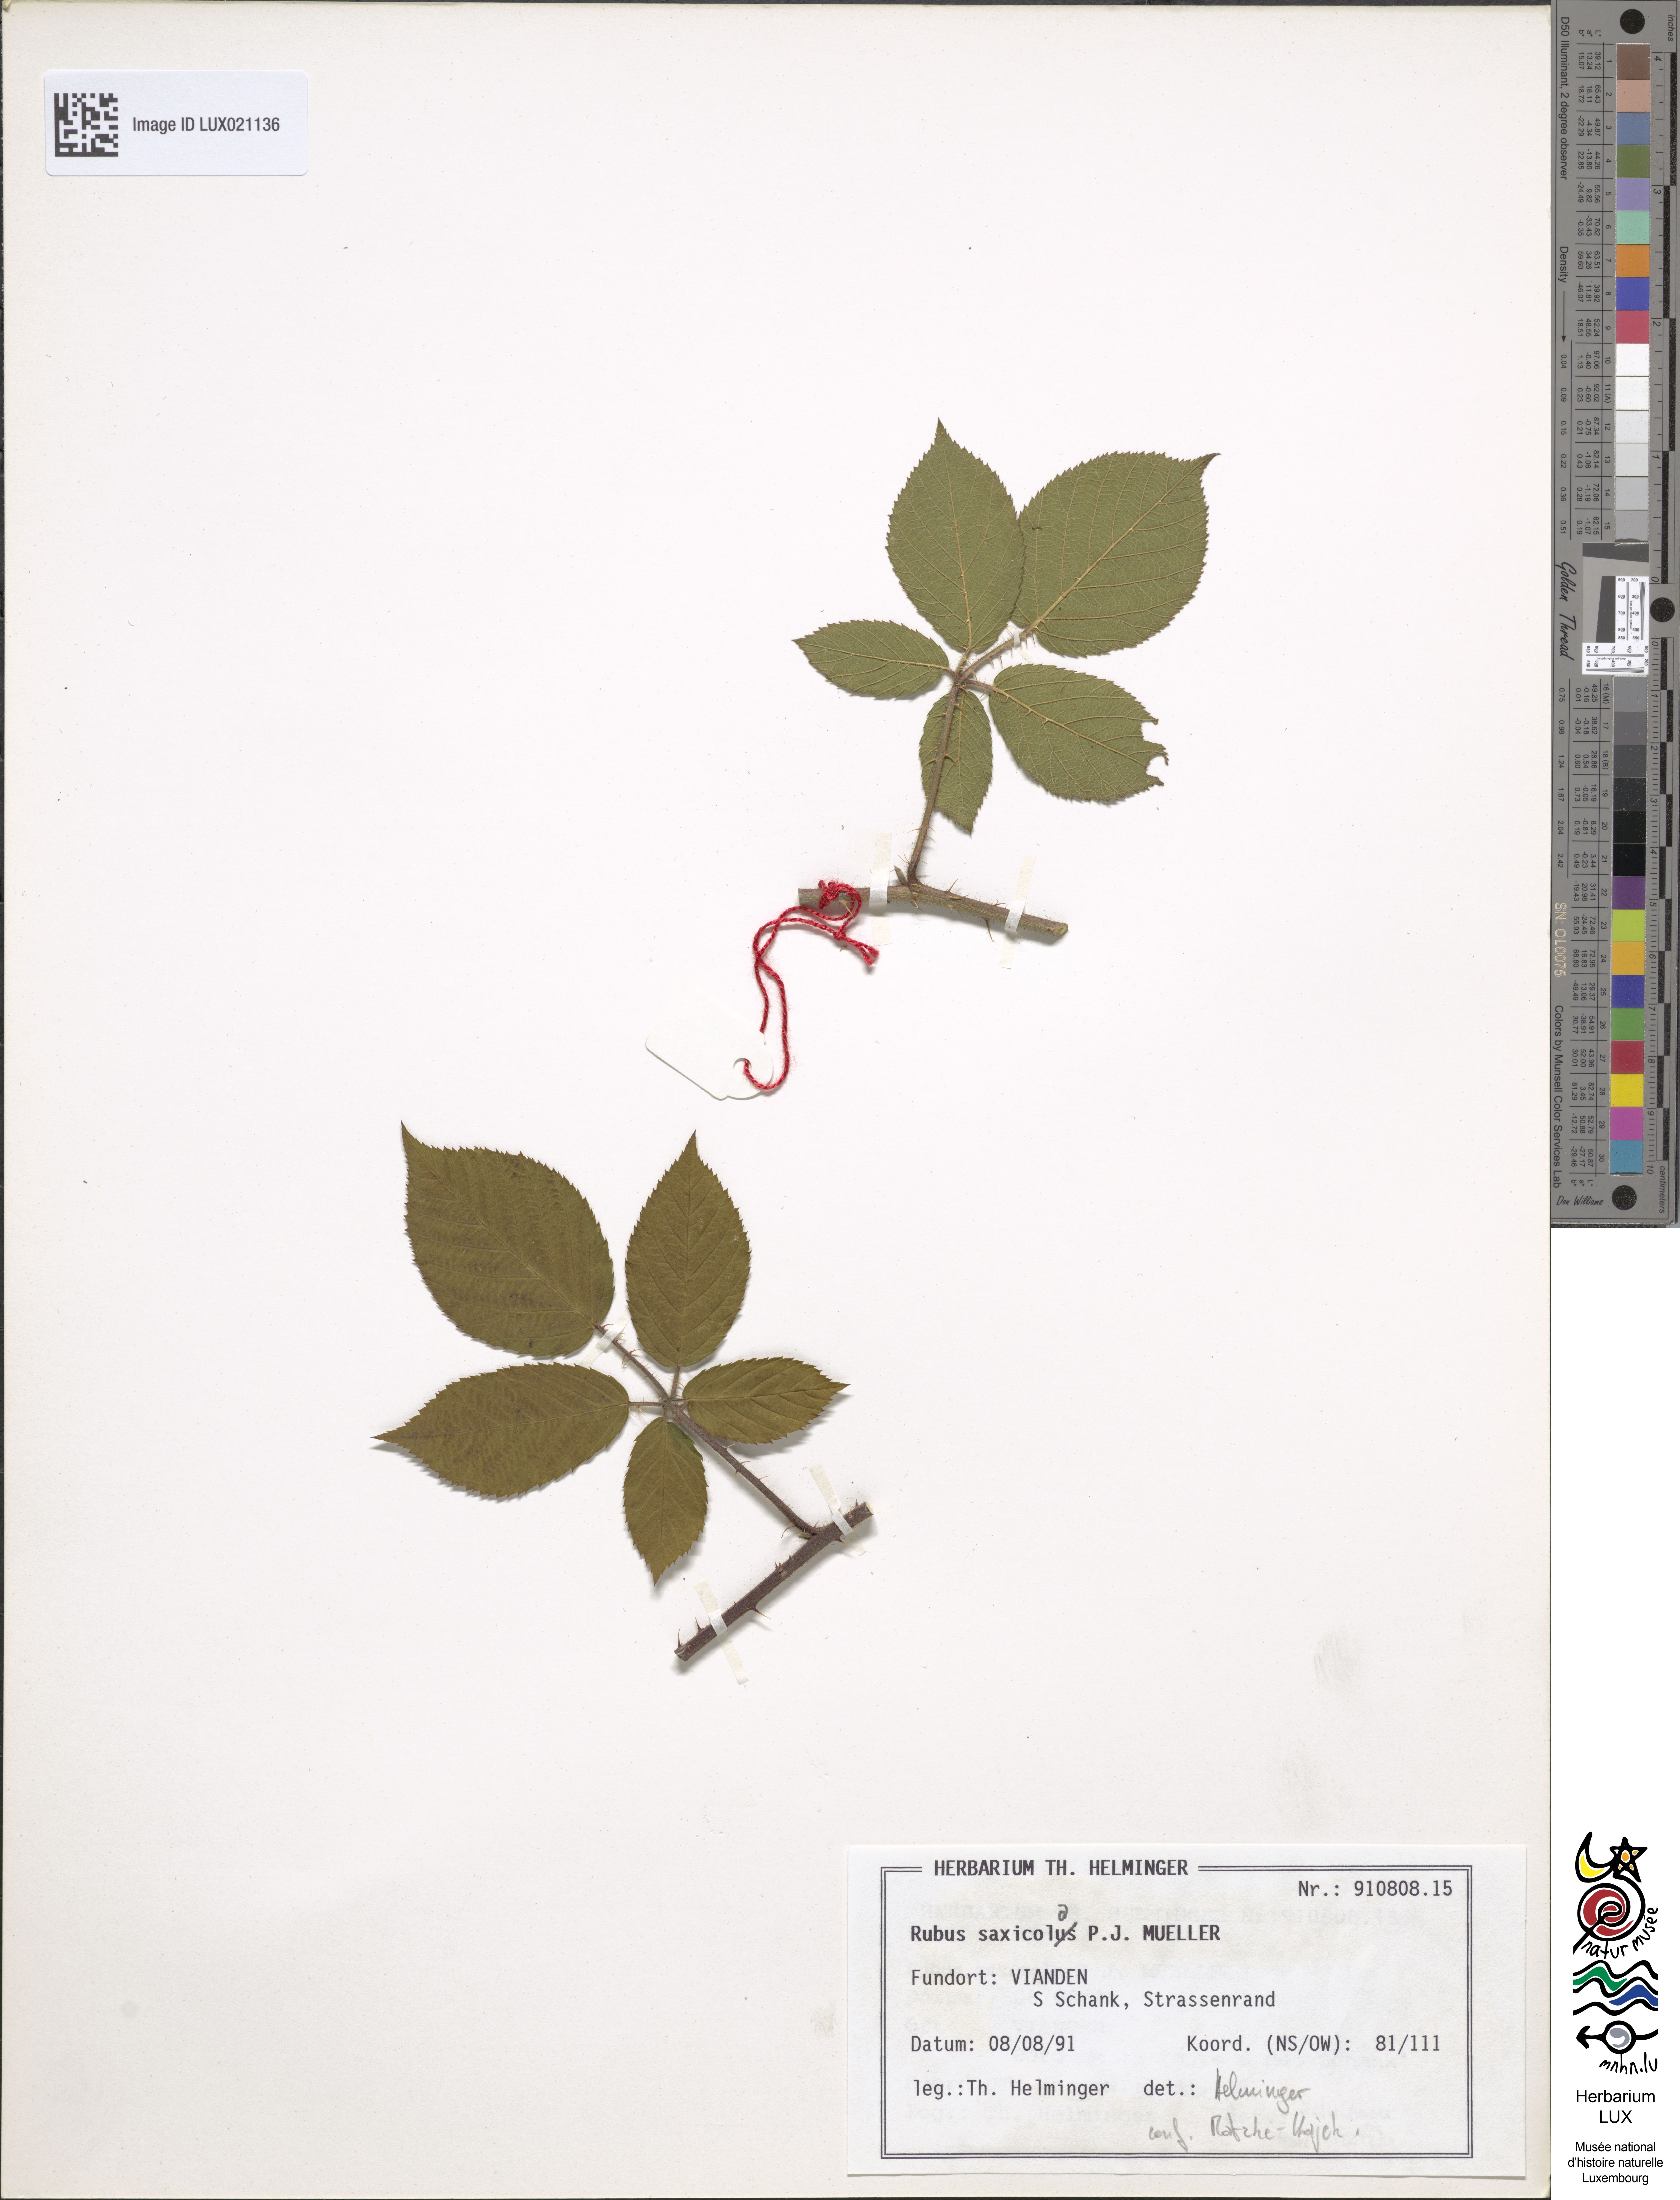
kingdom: Plantae
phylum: Tracheophyta
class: Magnoliopsida
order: Rosales
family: Rosaceae
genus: Rubus
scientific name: Rubus saxicola
